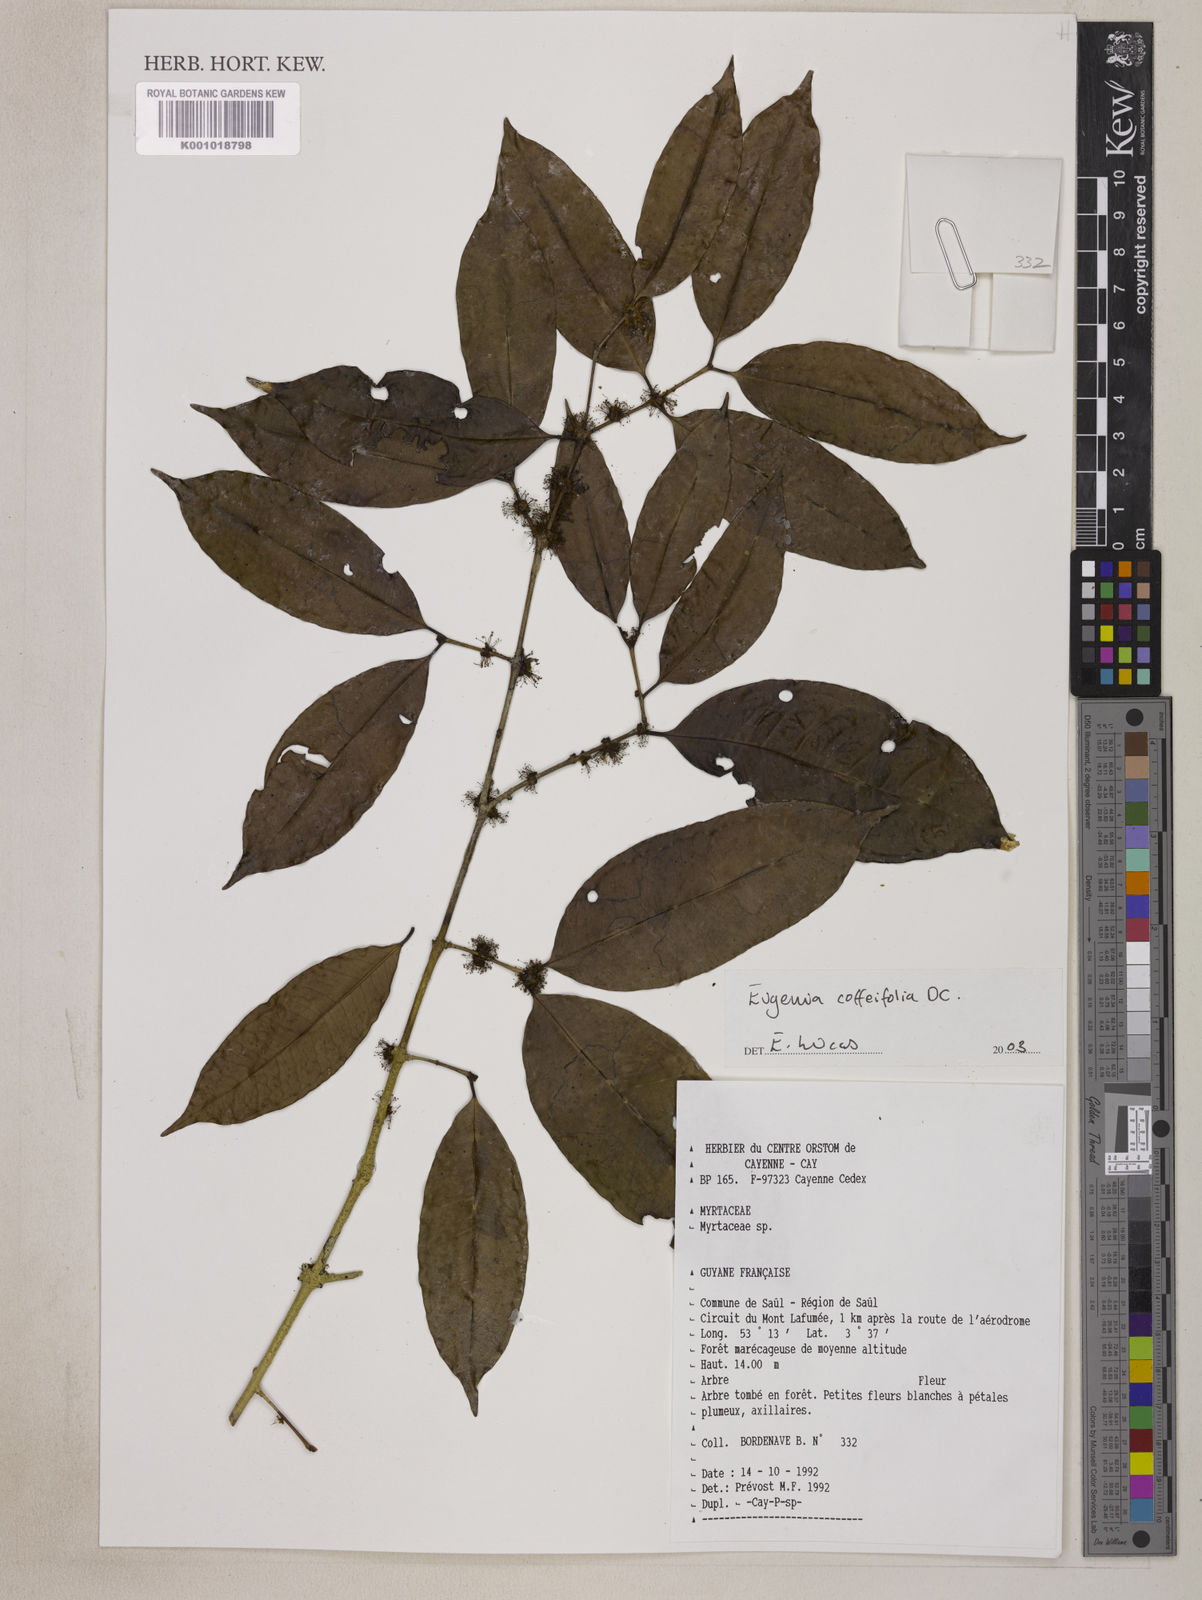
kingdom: Plantae
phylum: Tracheophyta
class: Magnoliopsida
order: Myrtales
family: Vochysiaceae
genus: Vochysia
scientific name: Vochysia lucida
